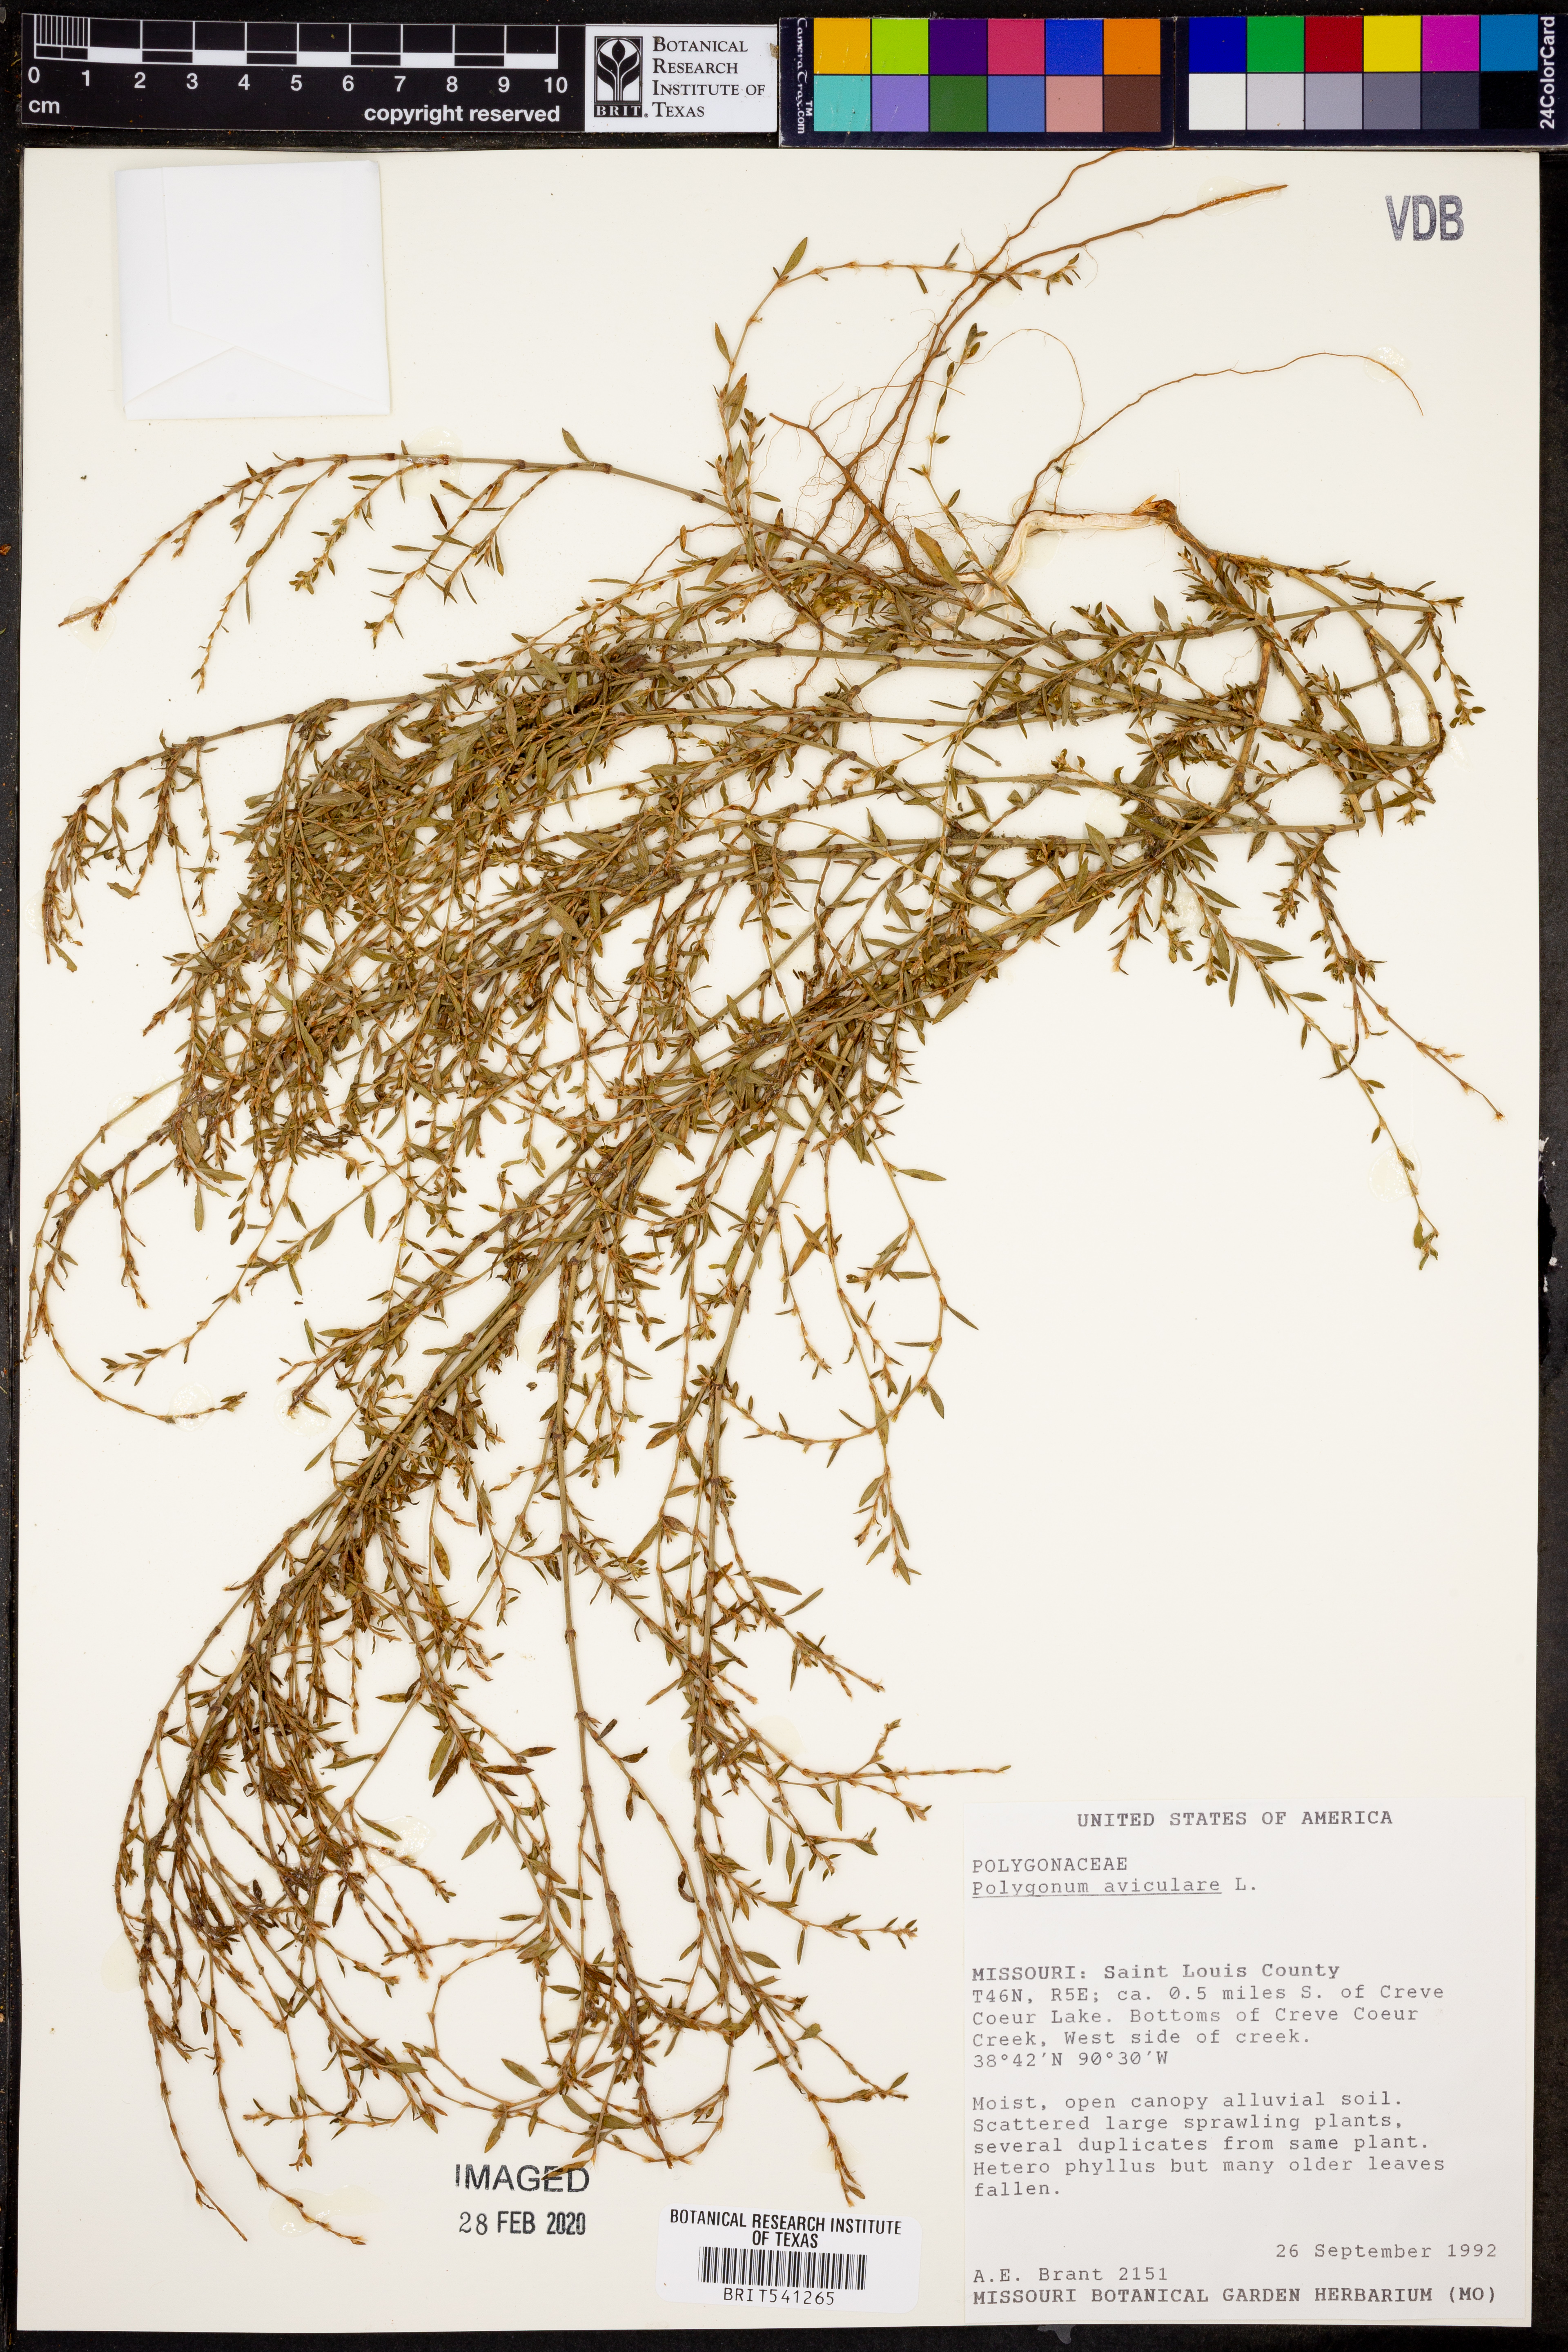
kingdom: Plantae
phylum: Tracheophyta
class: Magnoliopsida
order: Caryophyllales
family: Polygonaceae
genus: Polygonum
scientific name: Polygonum aviculare
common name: Prostrate knotweed
